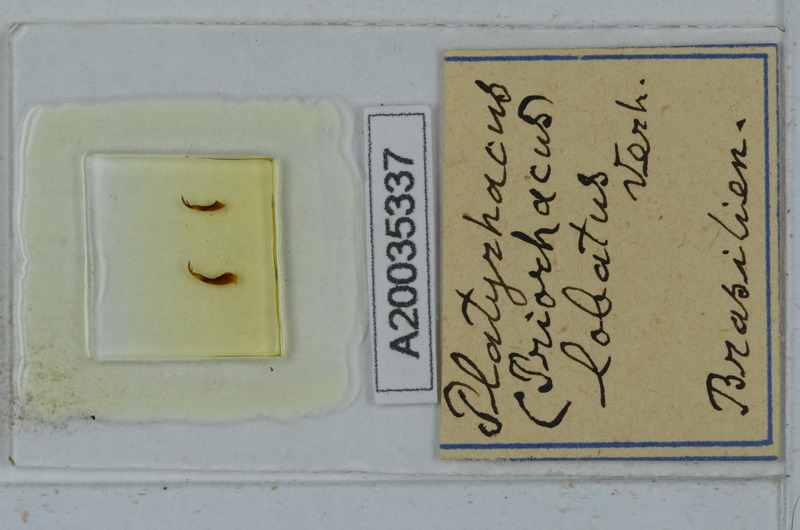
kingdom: Animalia
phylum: Arthropoda
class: Diplopoda
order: Polydesmida
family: Platyrhacidae
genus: Platyrhacus
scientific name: Platyrhacus
